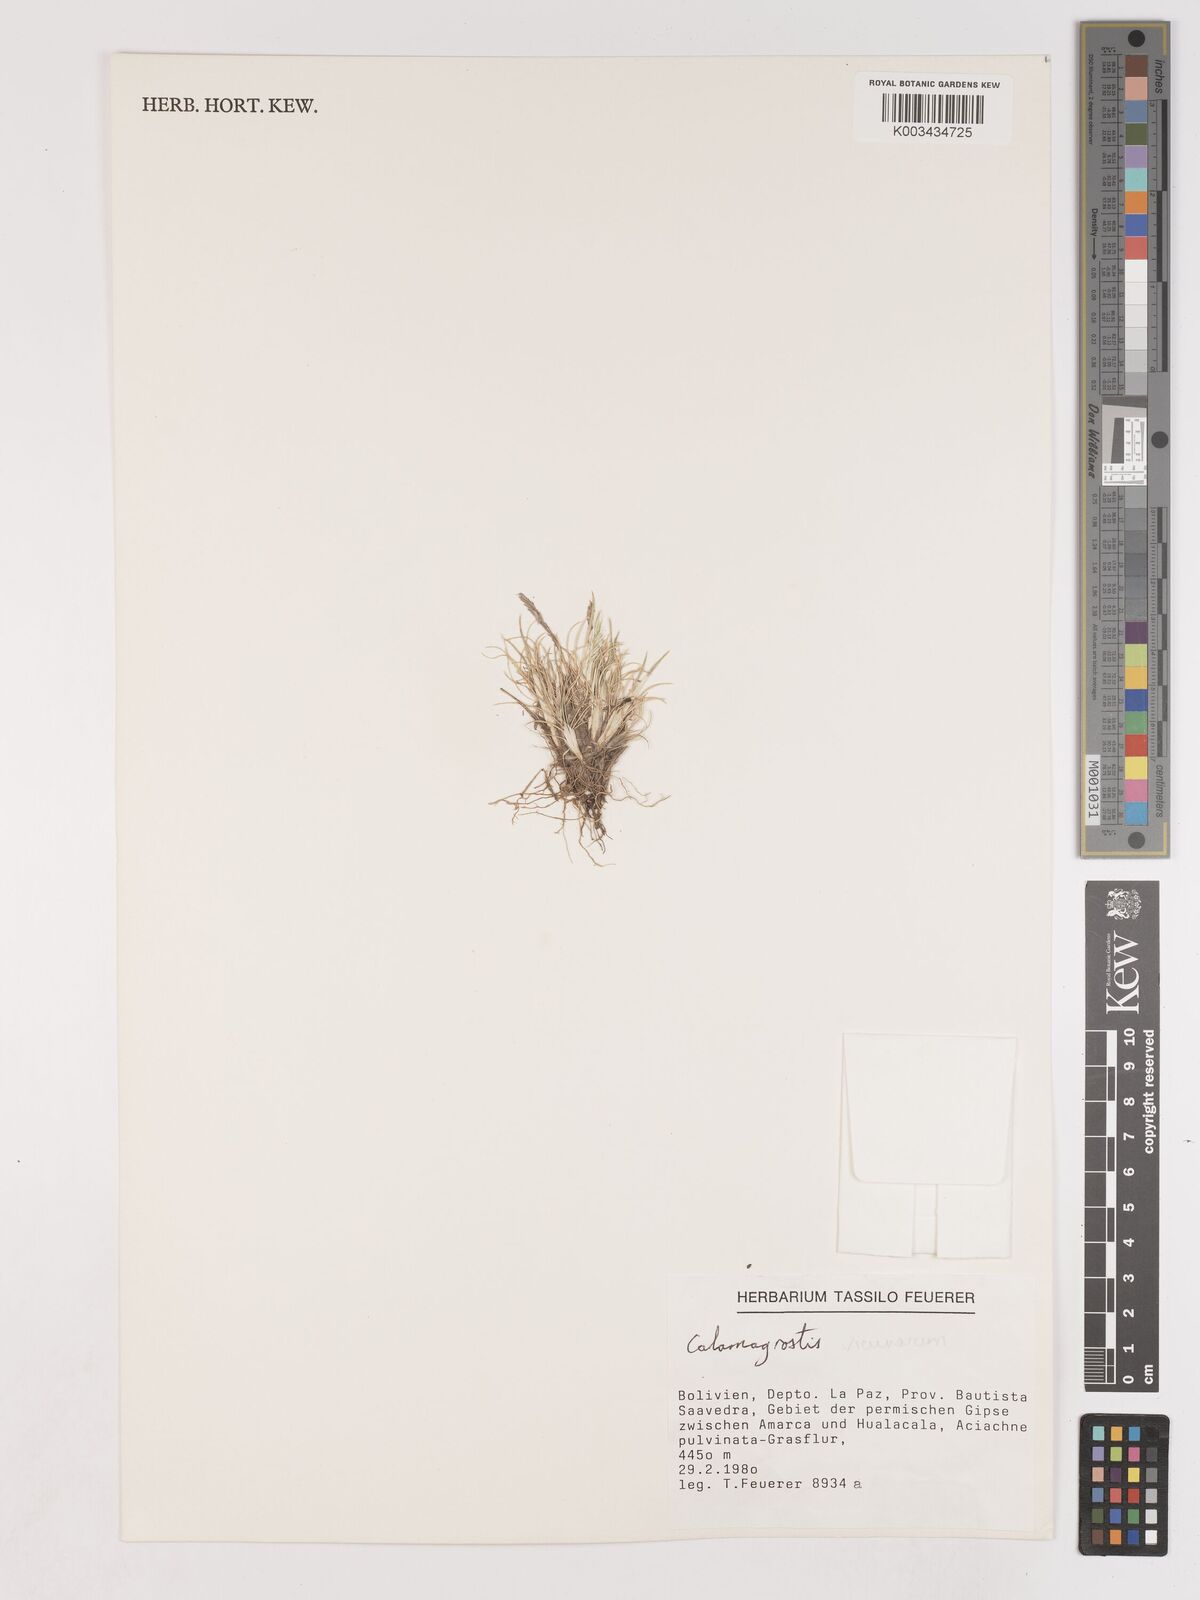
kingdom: Plantae
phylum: Tracheophyta
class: Liliopsida
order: Poales
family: Poaceae
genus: Cinnagrostis
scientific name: Cinnagrostis vicunarum
